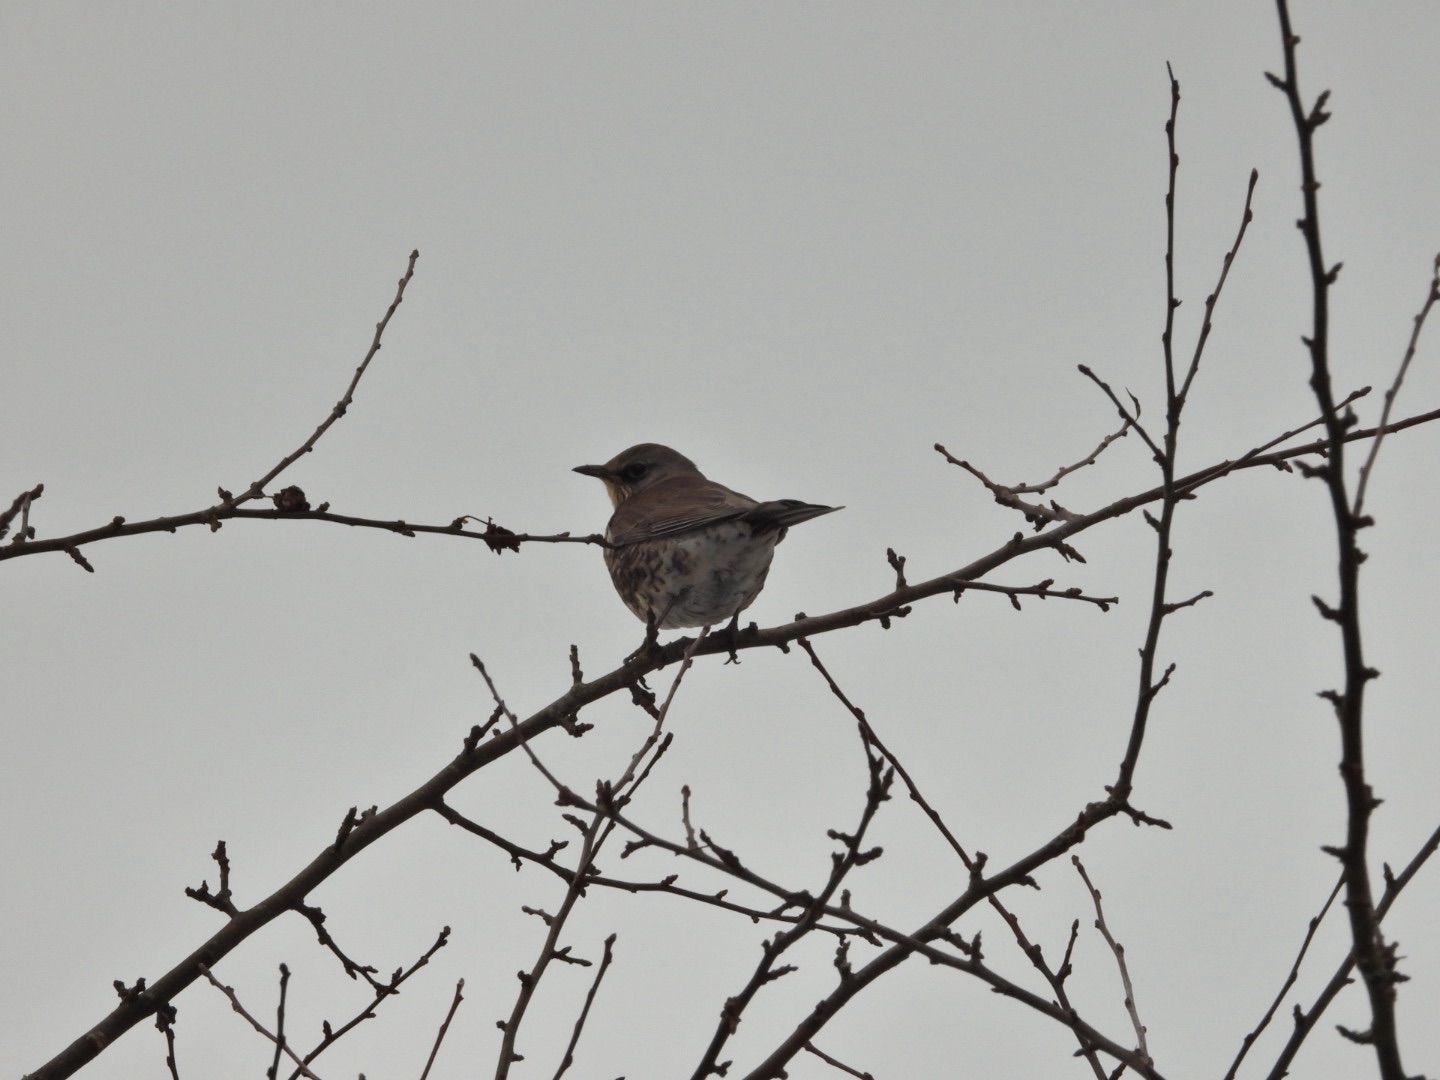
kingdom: Animalia
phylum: Chordata
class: Aves
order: Passeriformes
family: Turdidae
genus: Turdus
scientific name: Turdus pilaris
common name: Sjagger
